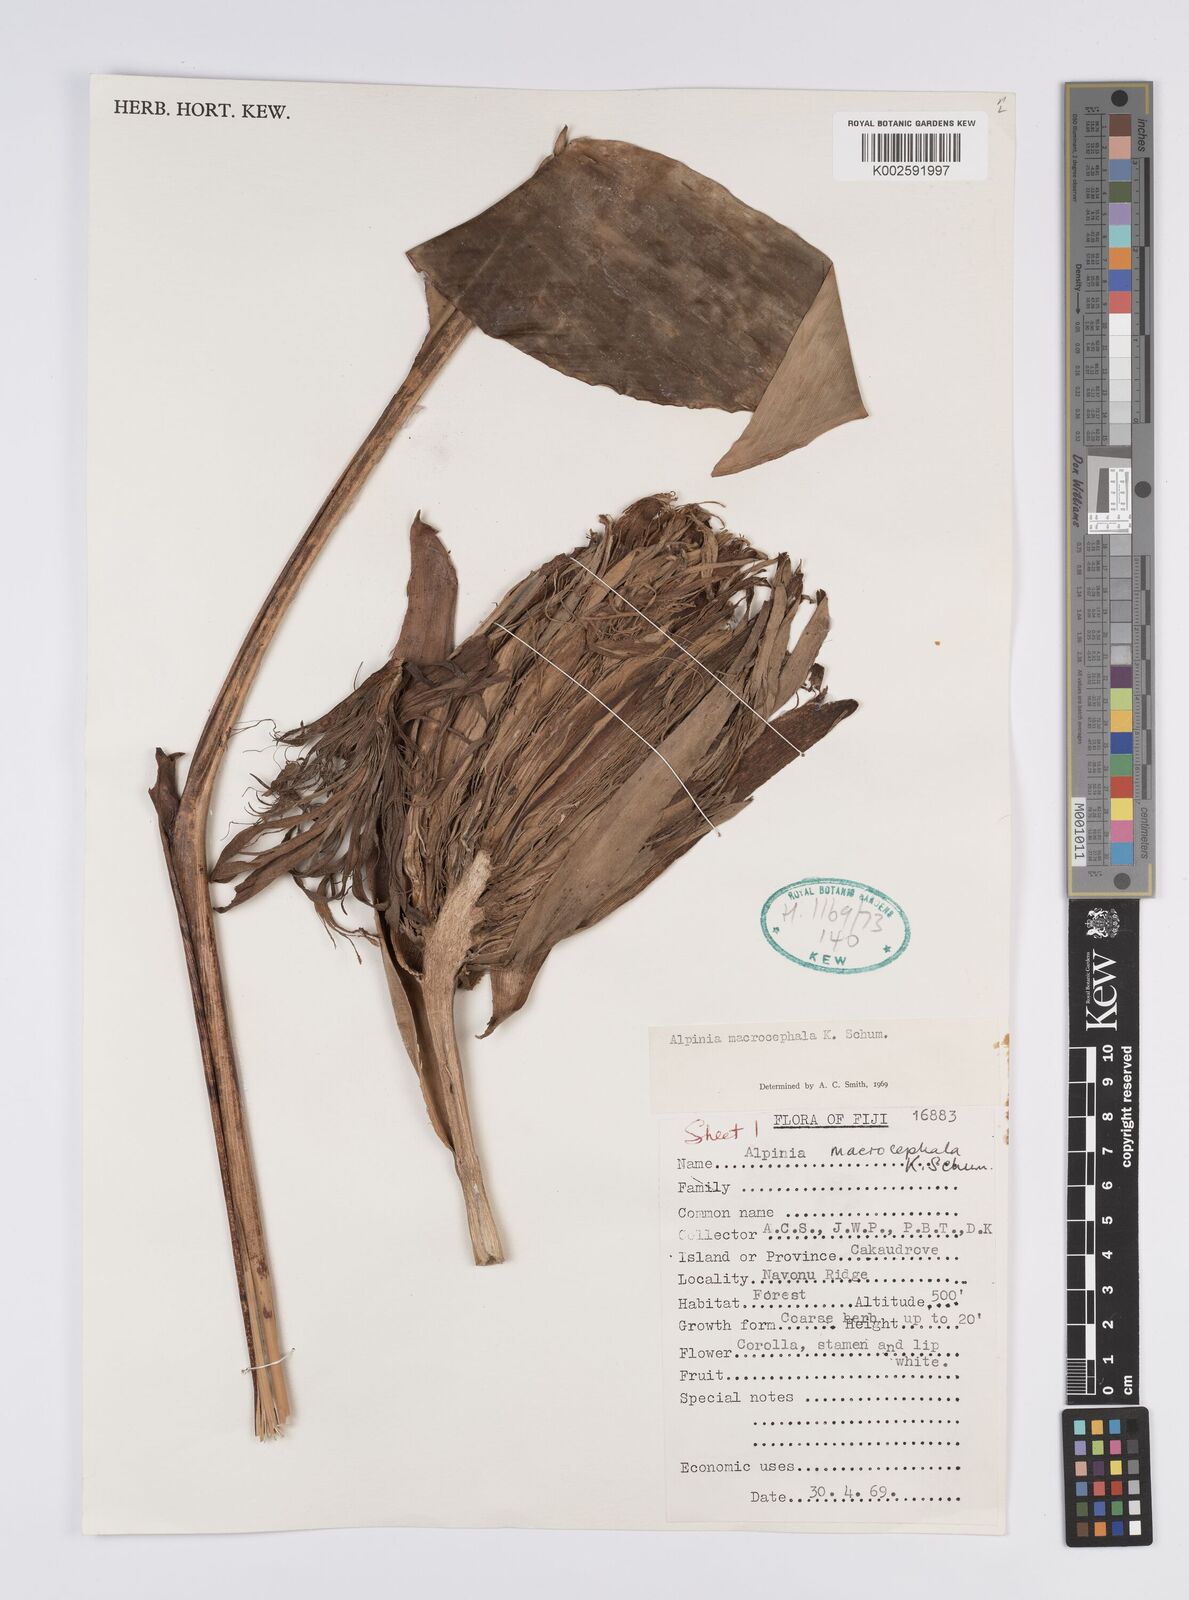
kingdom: Plantae
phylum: Tracheophyta
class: Liliopsida
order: Zingiberales
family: Zingiberaceae
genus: Alpinia
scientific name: Alpinia macrocephala
